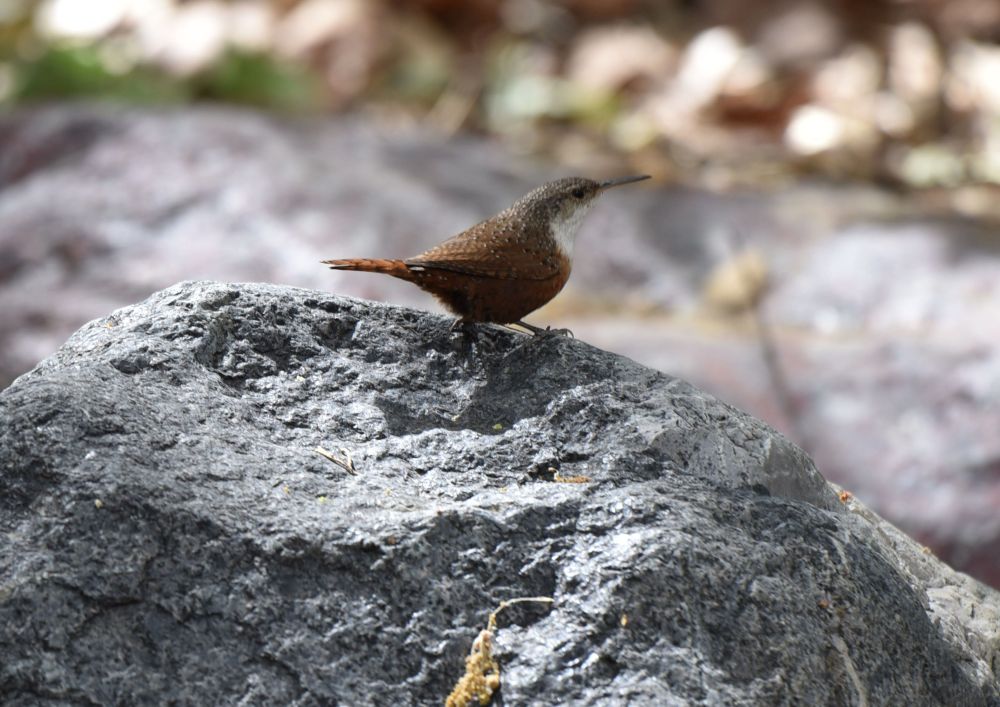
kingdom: Animalia
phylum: Chordata
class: Aves
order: Passeriformes
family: Troglodytidae
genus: Catherpes
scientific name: Catherpes mexicanus
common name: Canyon wren
